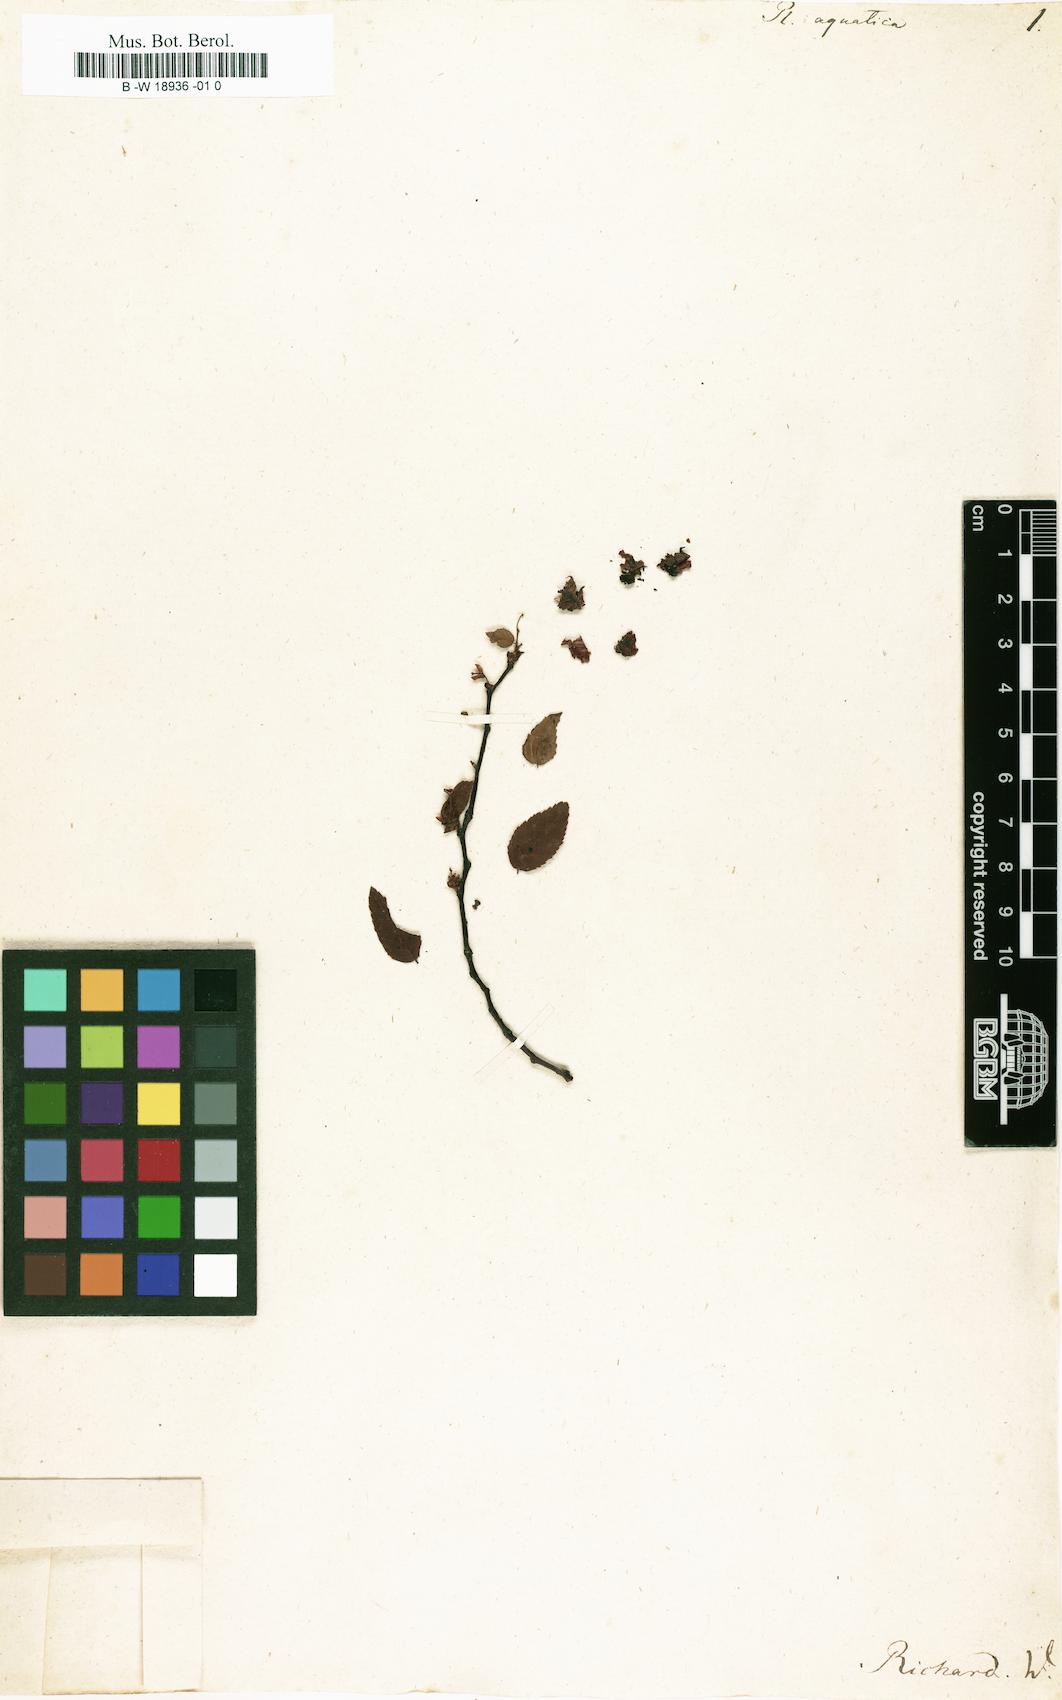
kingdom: Plantae
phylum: Tracheophyta
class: Magnoliopsida
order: Rosales
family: Ulmaceae
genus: Planera
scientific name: Planera aquatica
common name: Water-elm
